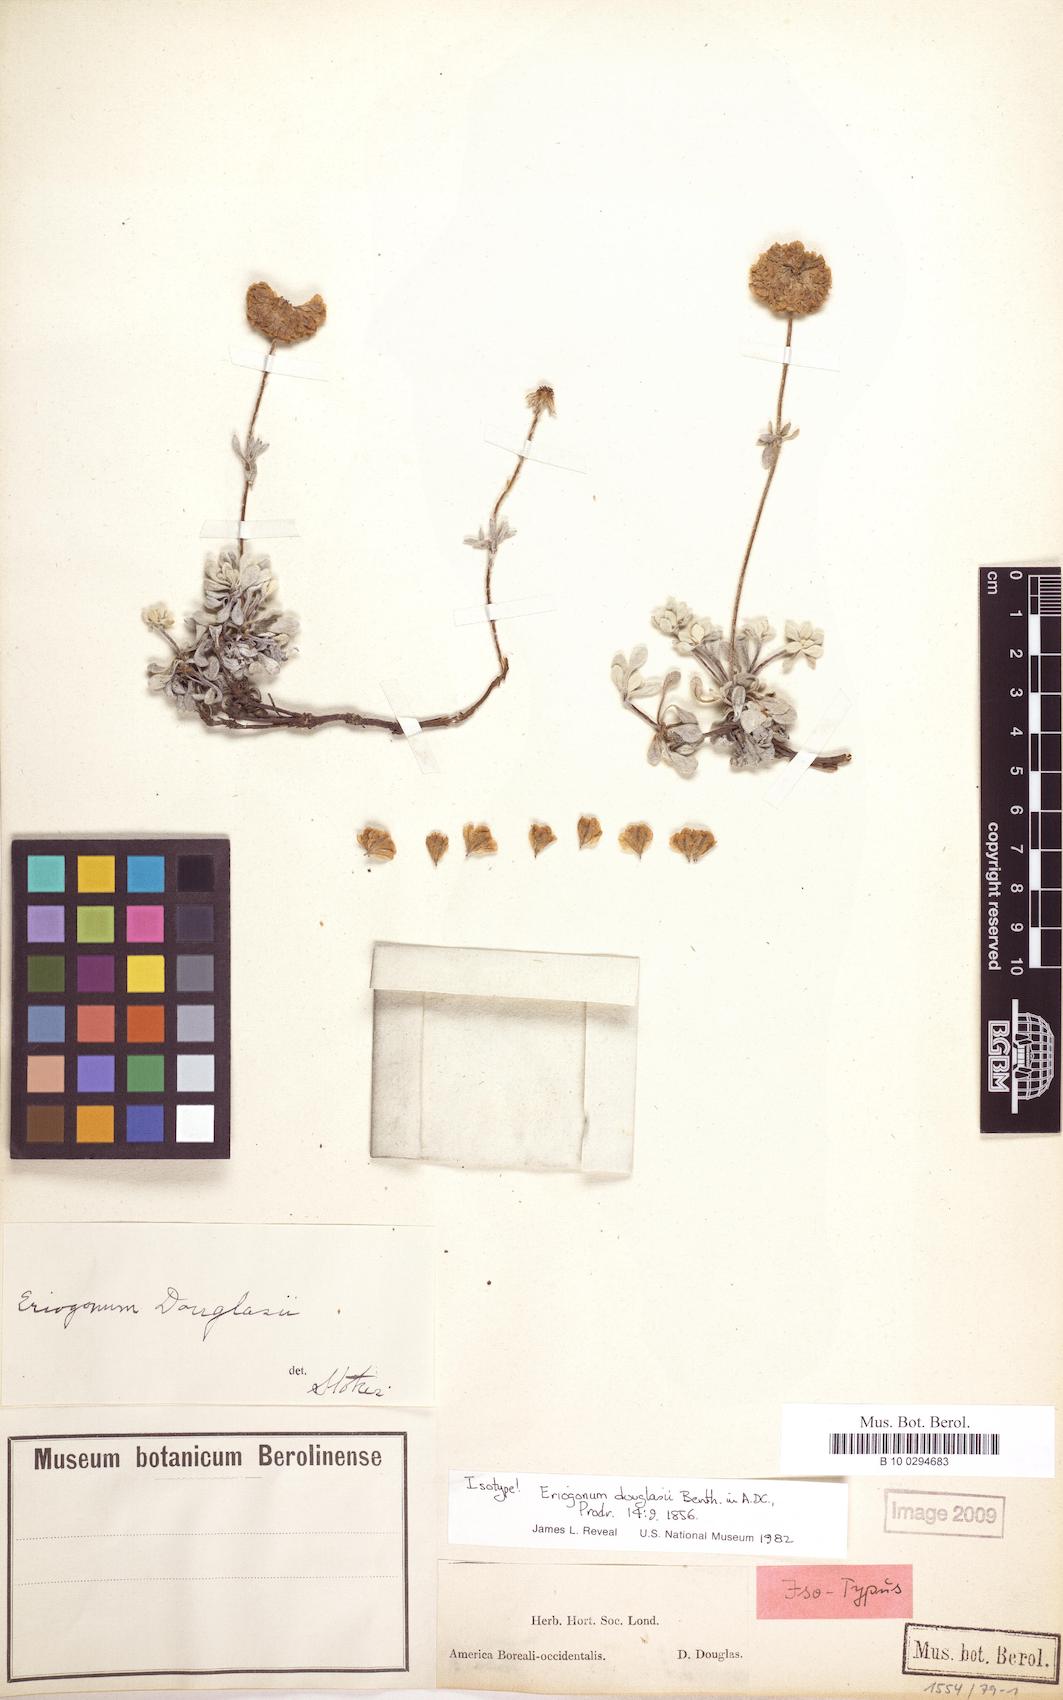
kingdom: Plantae
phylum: Tracheophyta
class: Magnoliopsida
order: Caryophyllales
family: Polygonaceae
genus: Eriogonum
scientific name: Eriogonum douglasii
